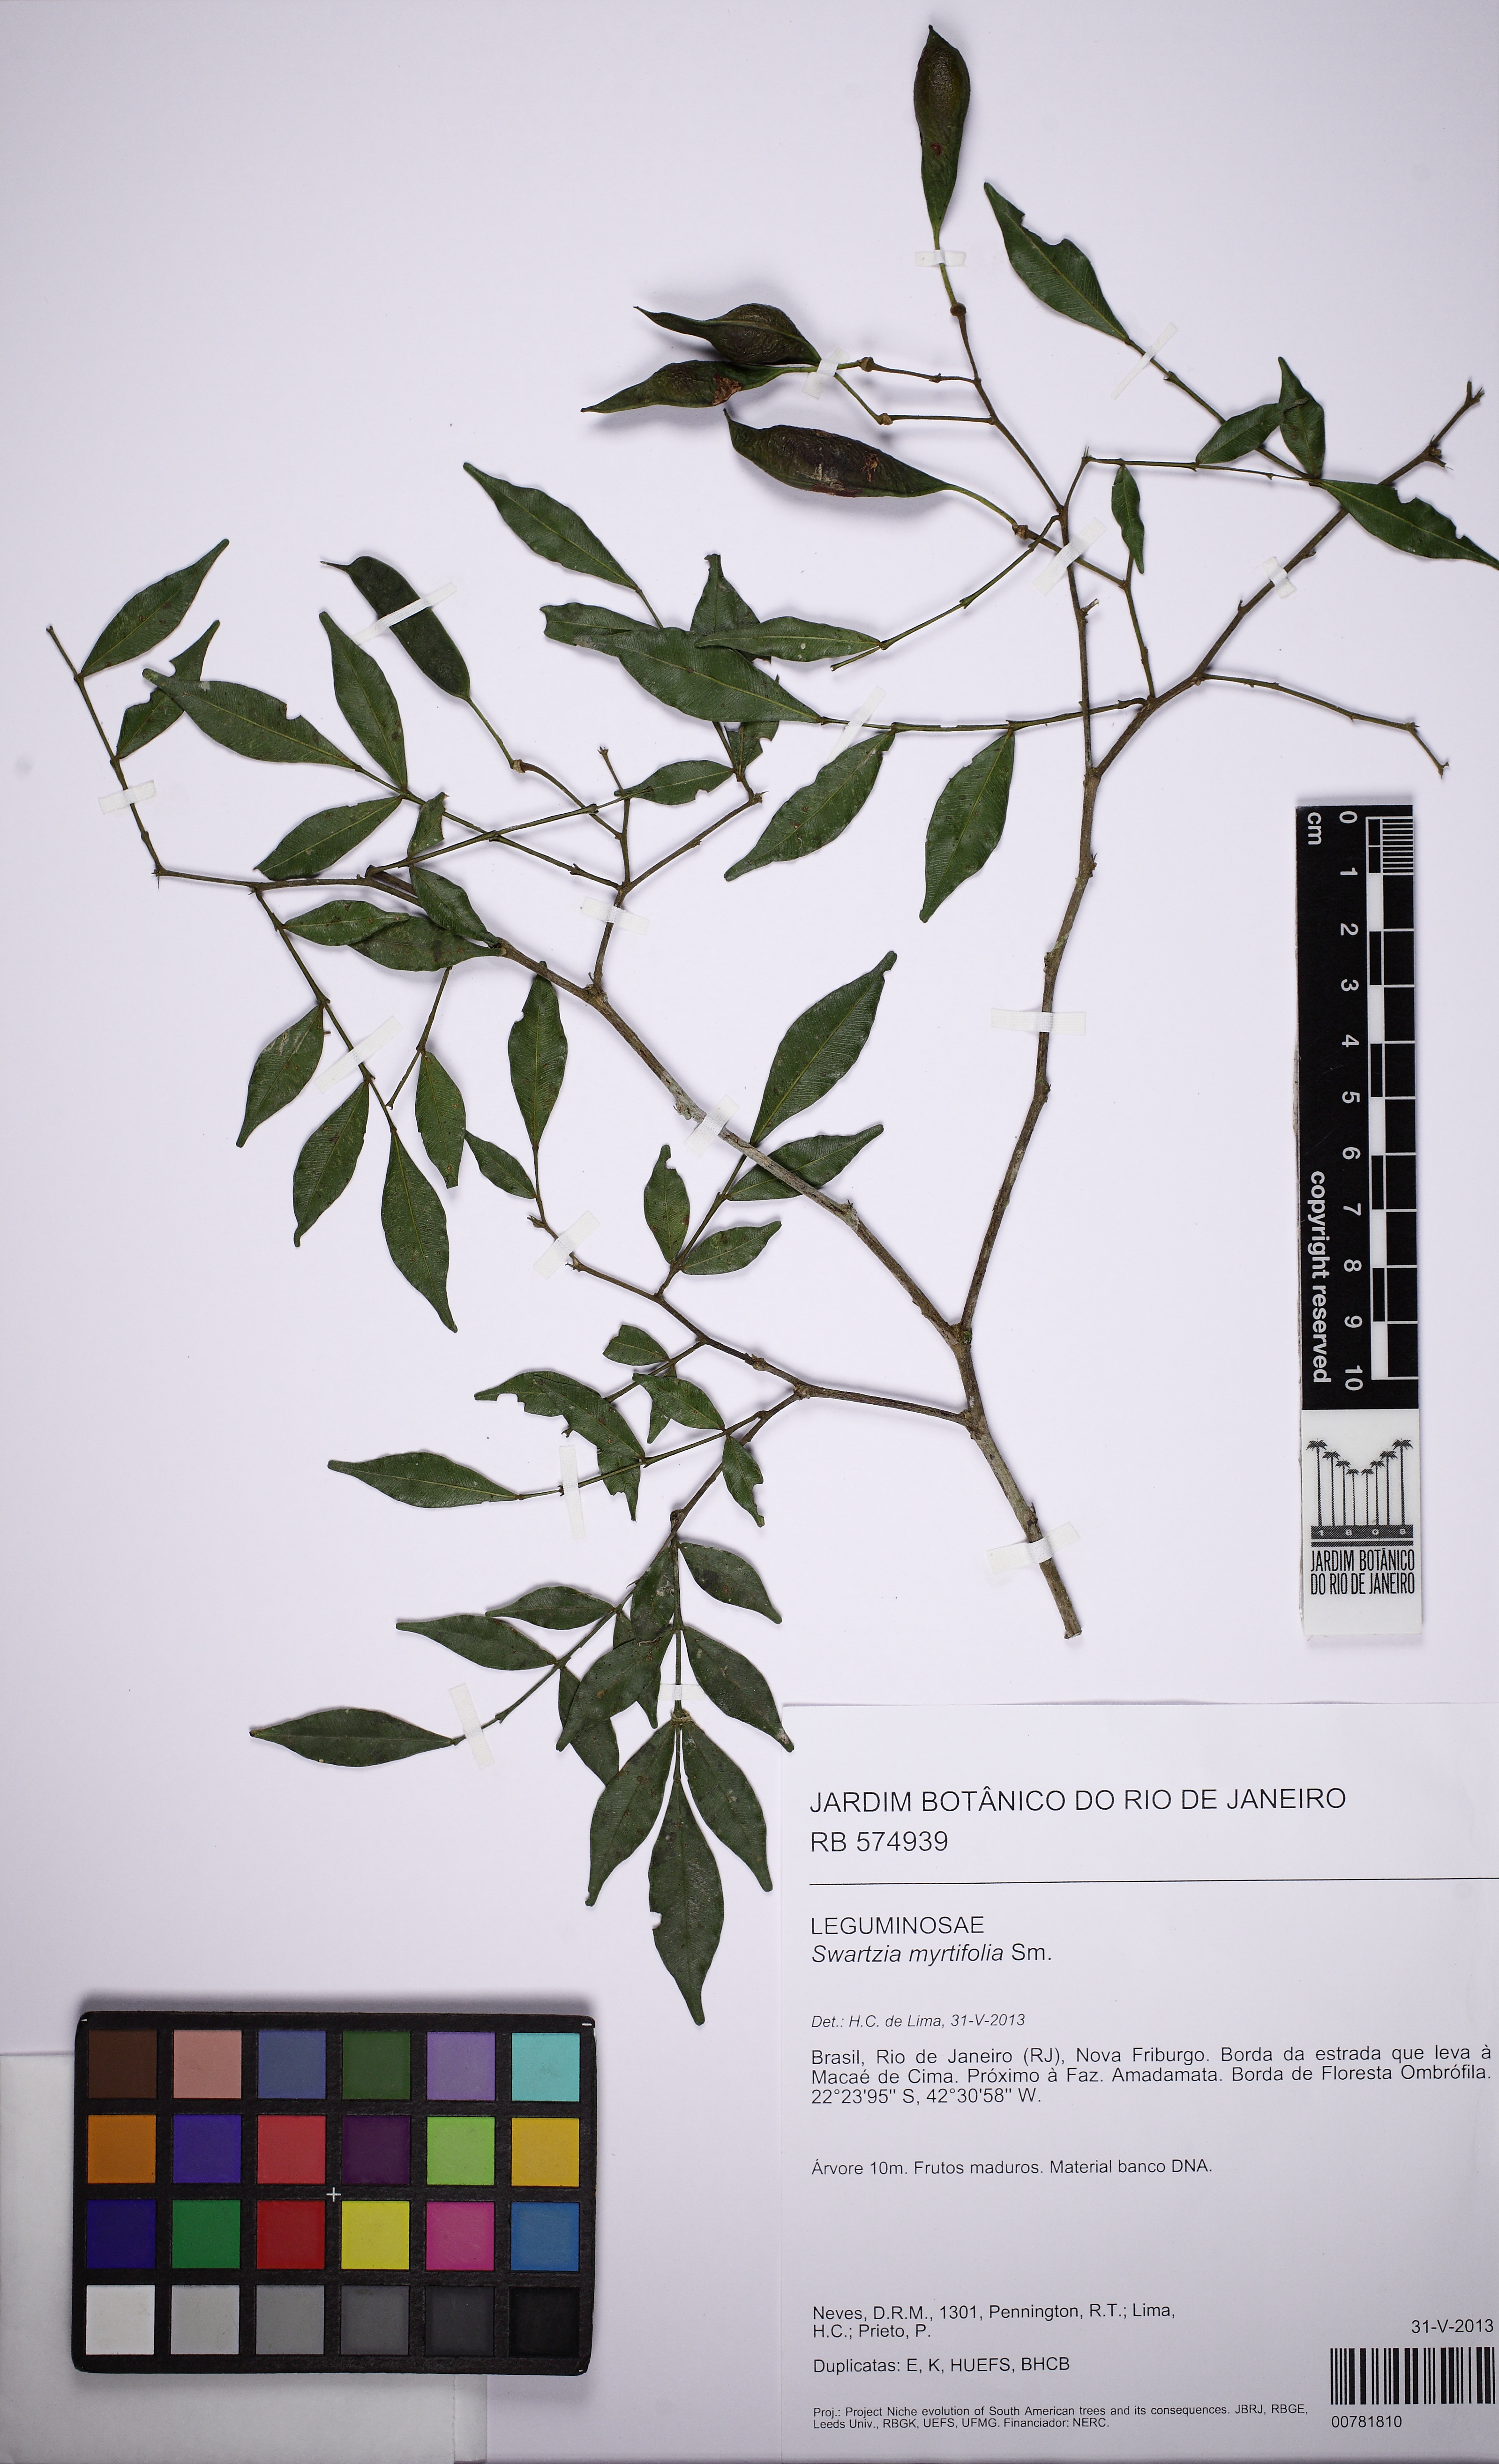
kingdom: Plantae
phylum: Tracheophyta
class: Magnoliopsida
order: Fabales
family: Fabaceae
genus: Swartzia
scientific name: Swartzia myrtifolia
